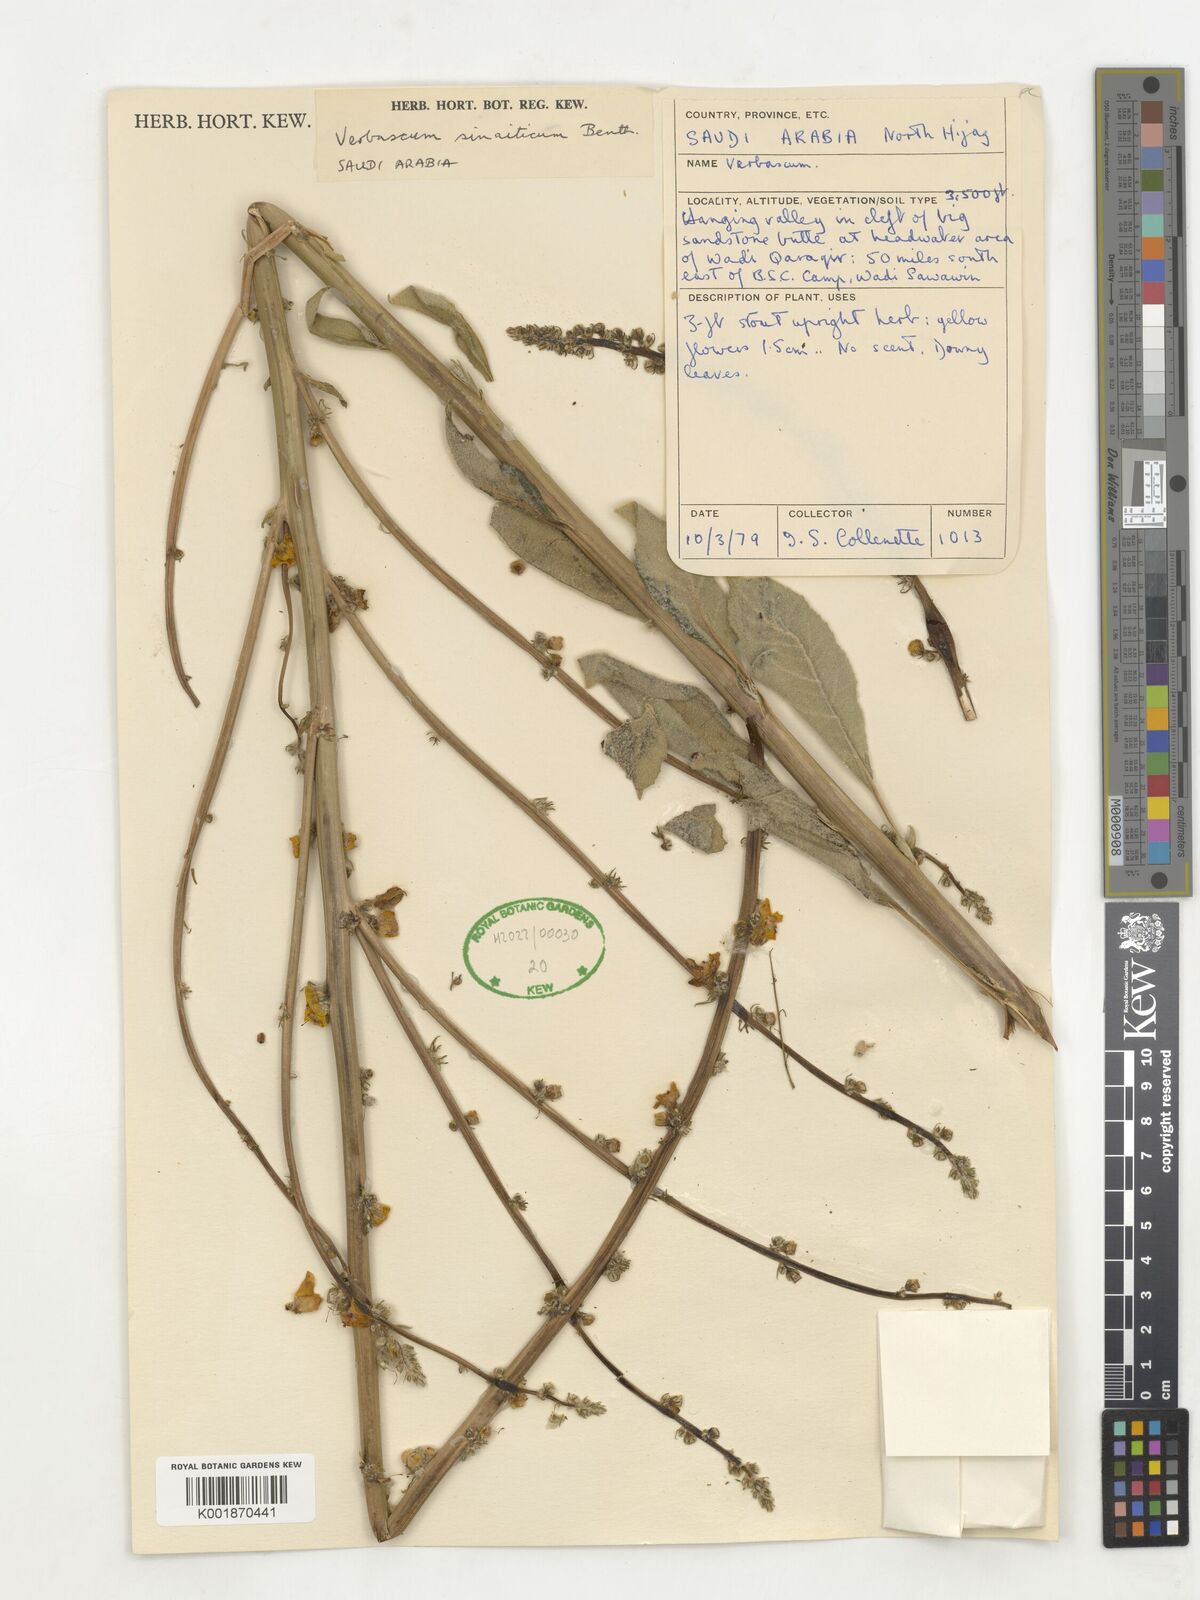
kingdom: Plantae
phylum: Tracheophyta
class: Magnoliopsida
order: Lamiales
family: Scrophulariaceae
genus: Verbascum
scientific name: Verbascum sinaiticum
